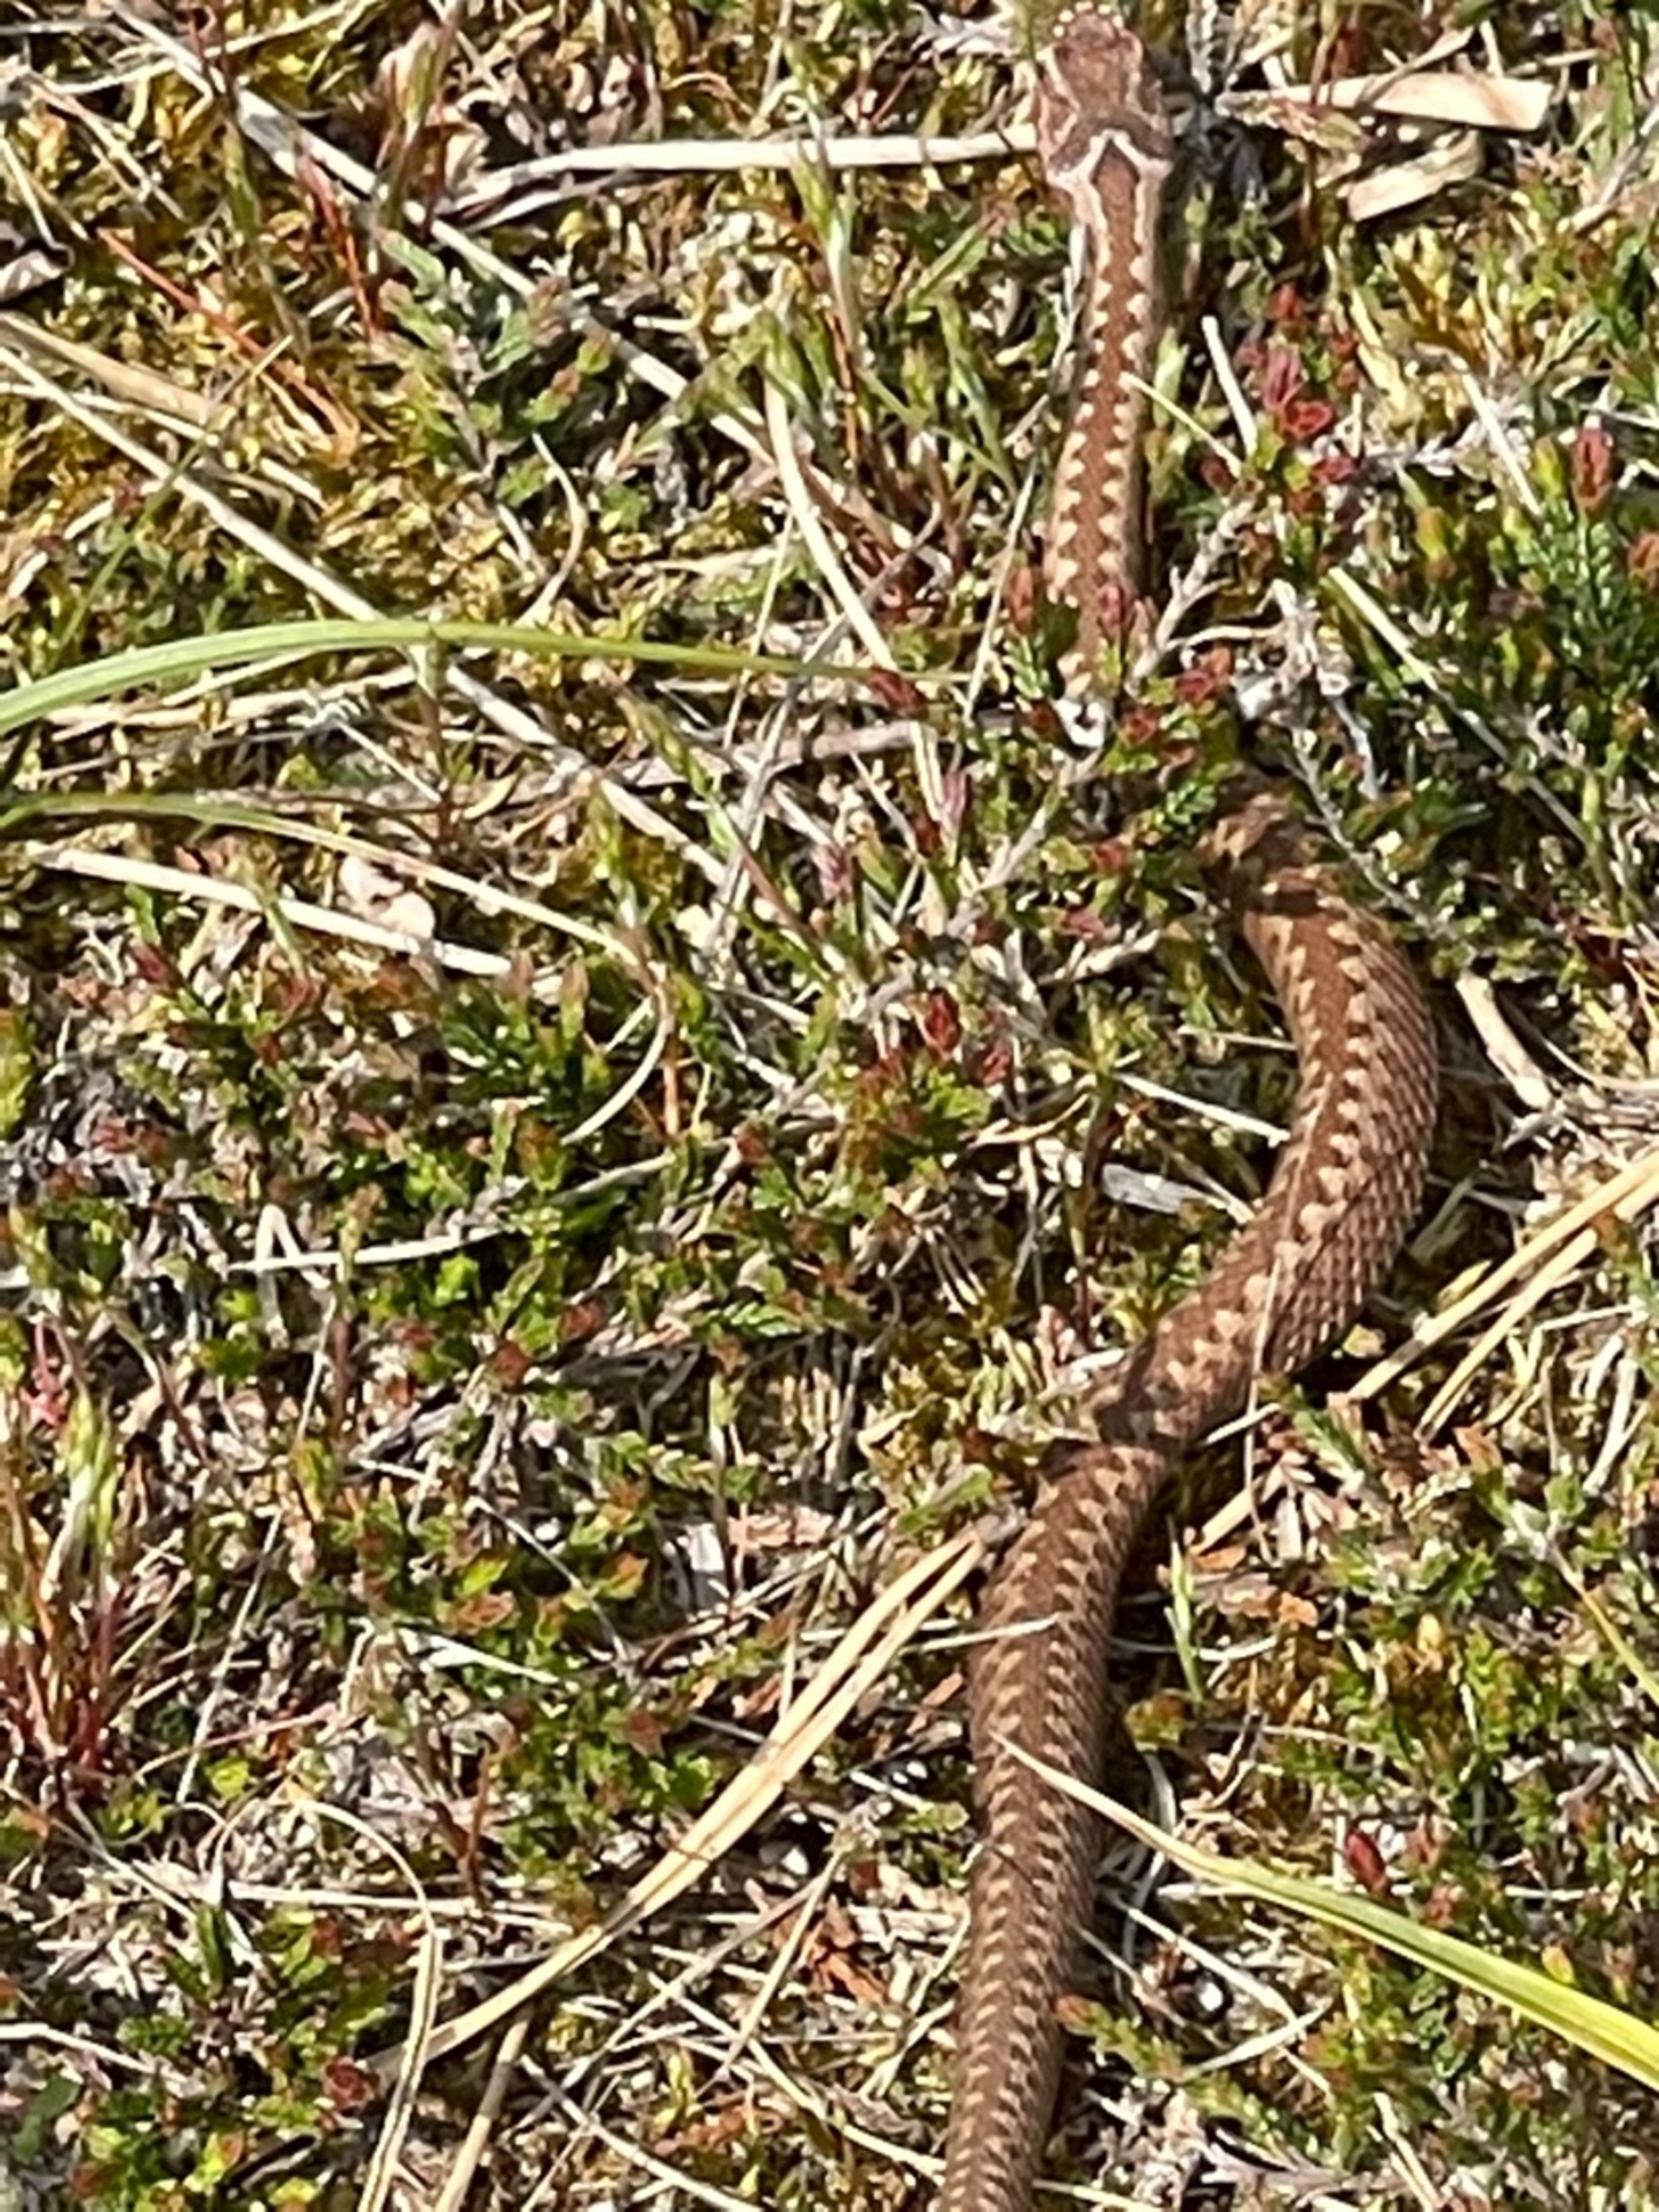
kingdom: Animalia
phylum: Chordata
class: Squamata
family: Viperidae
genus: Vipera
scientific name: Vipera berus
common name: Hugorm
